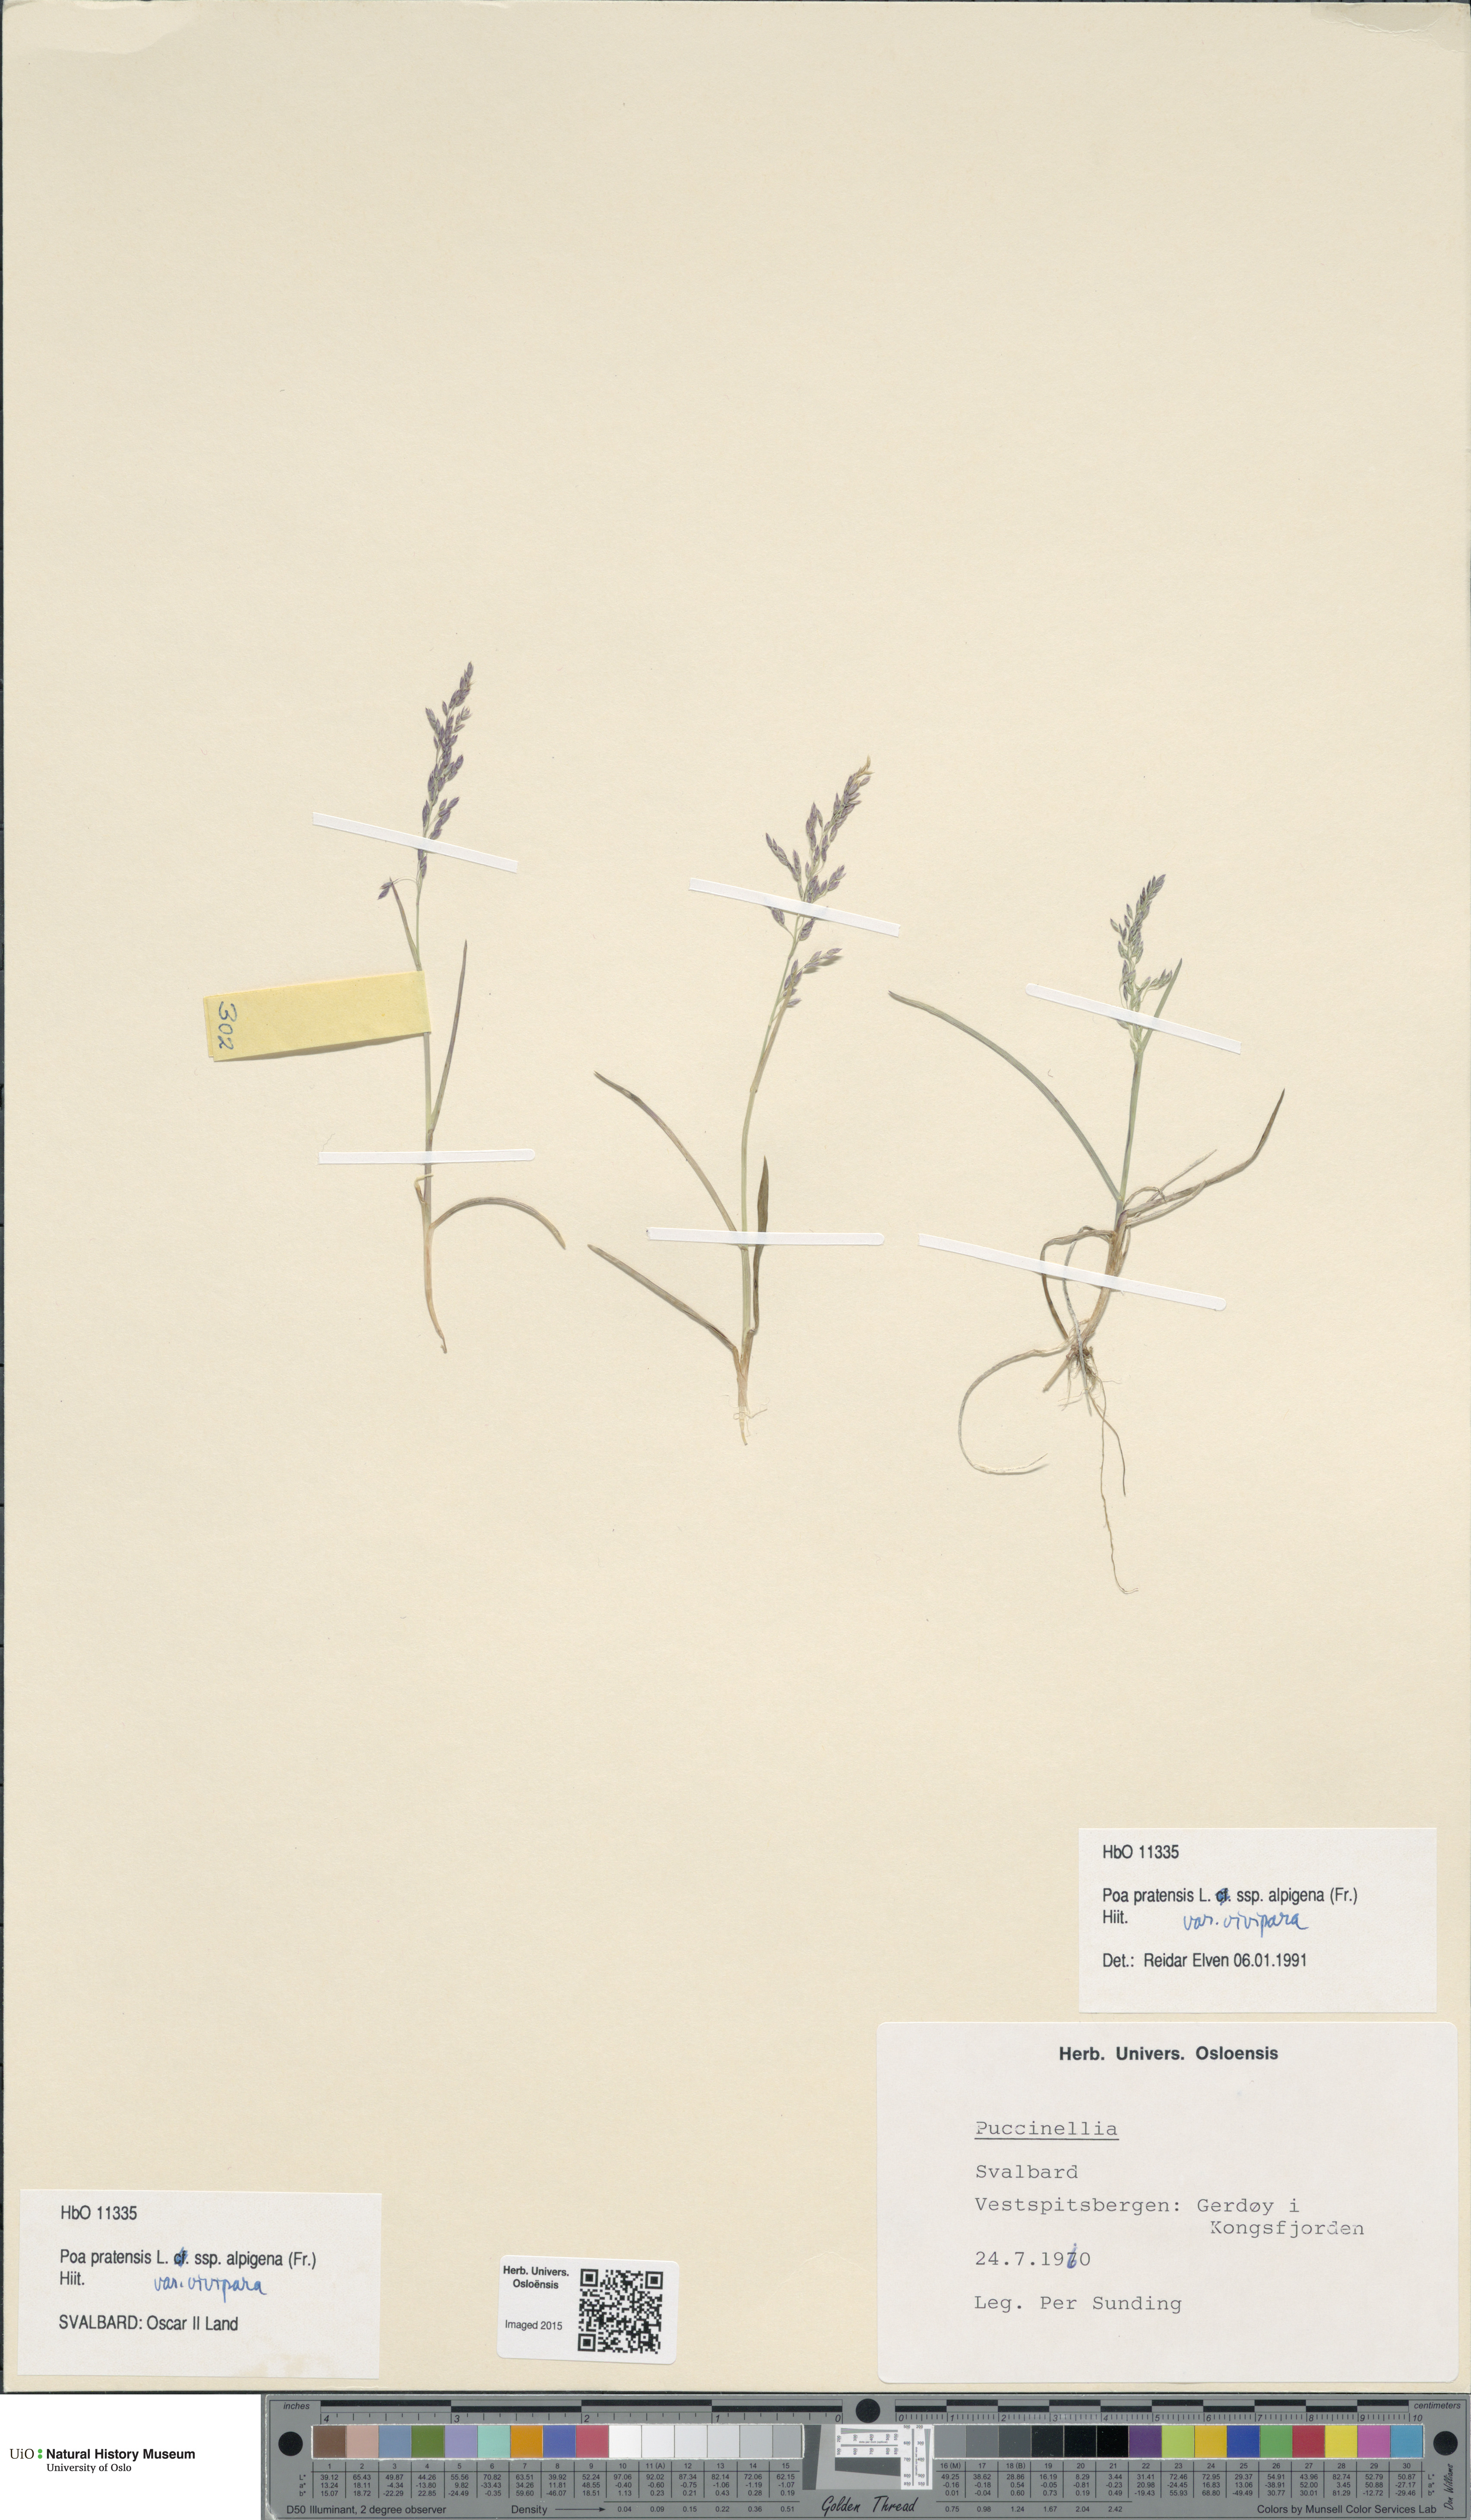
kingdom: Plantae
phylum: Tracheophyta
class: Liliopsida
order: Poales
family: Poaceae
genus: Poa
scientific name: Poa arctica
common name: Arctic bluegrass
